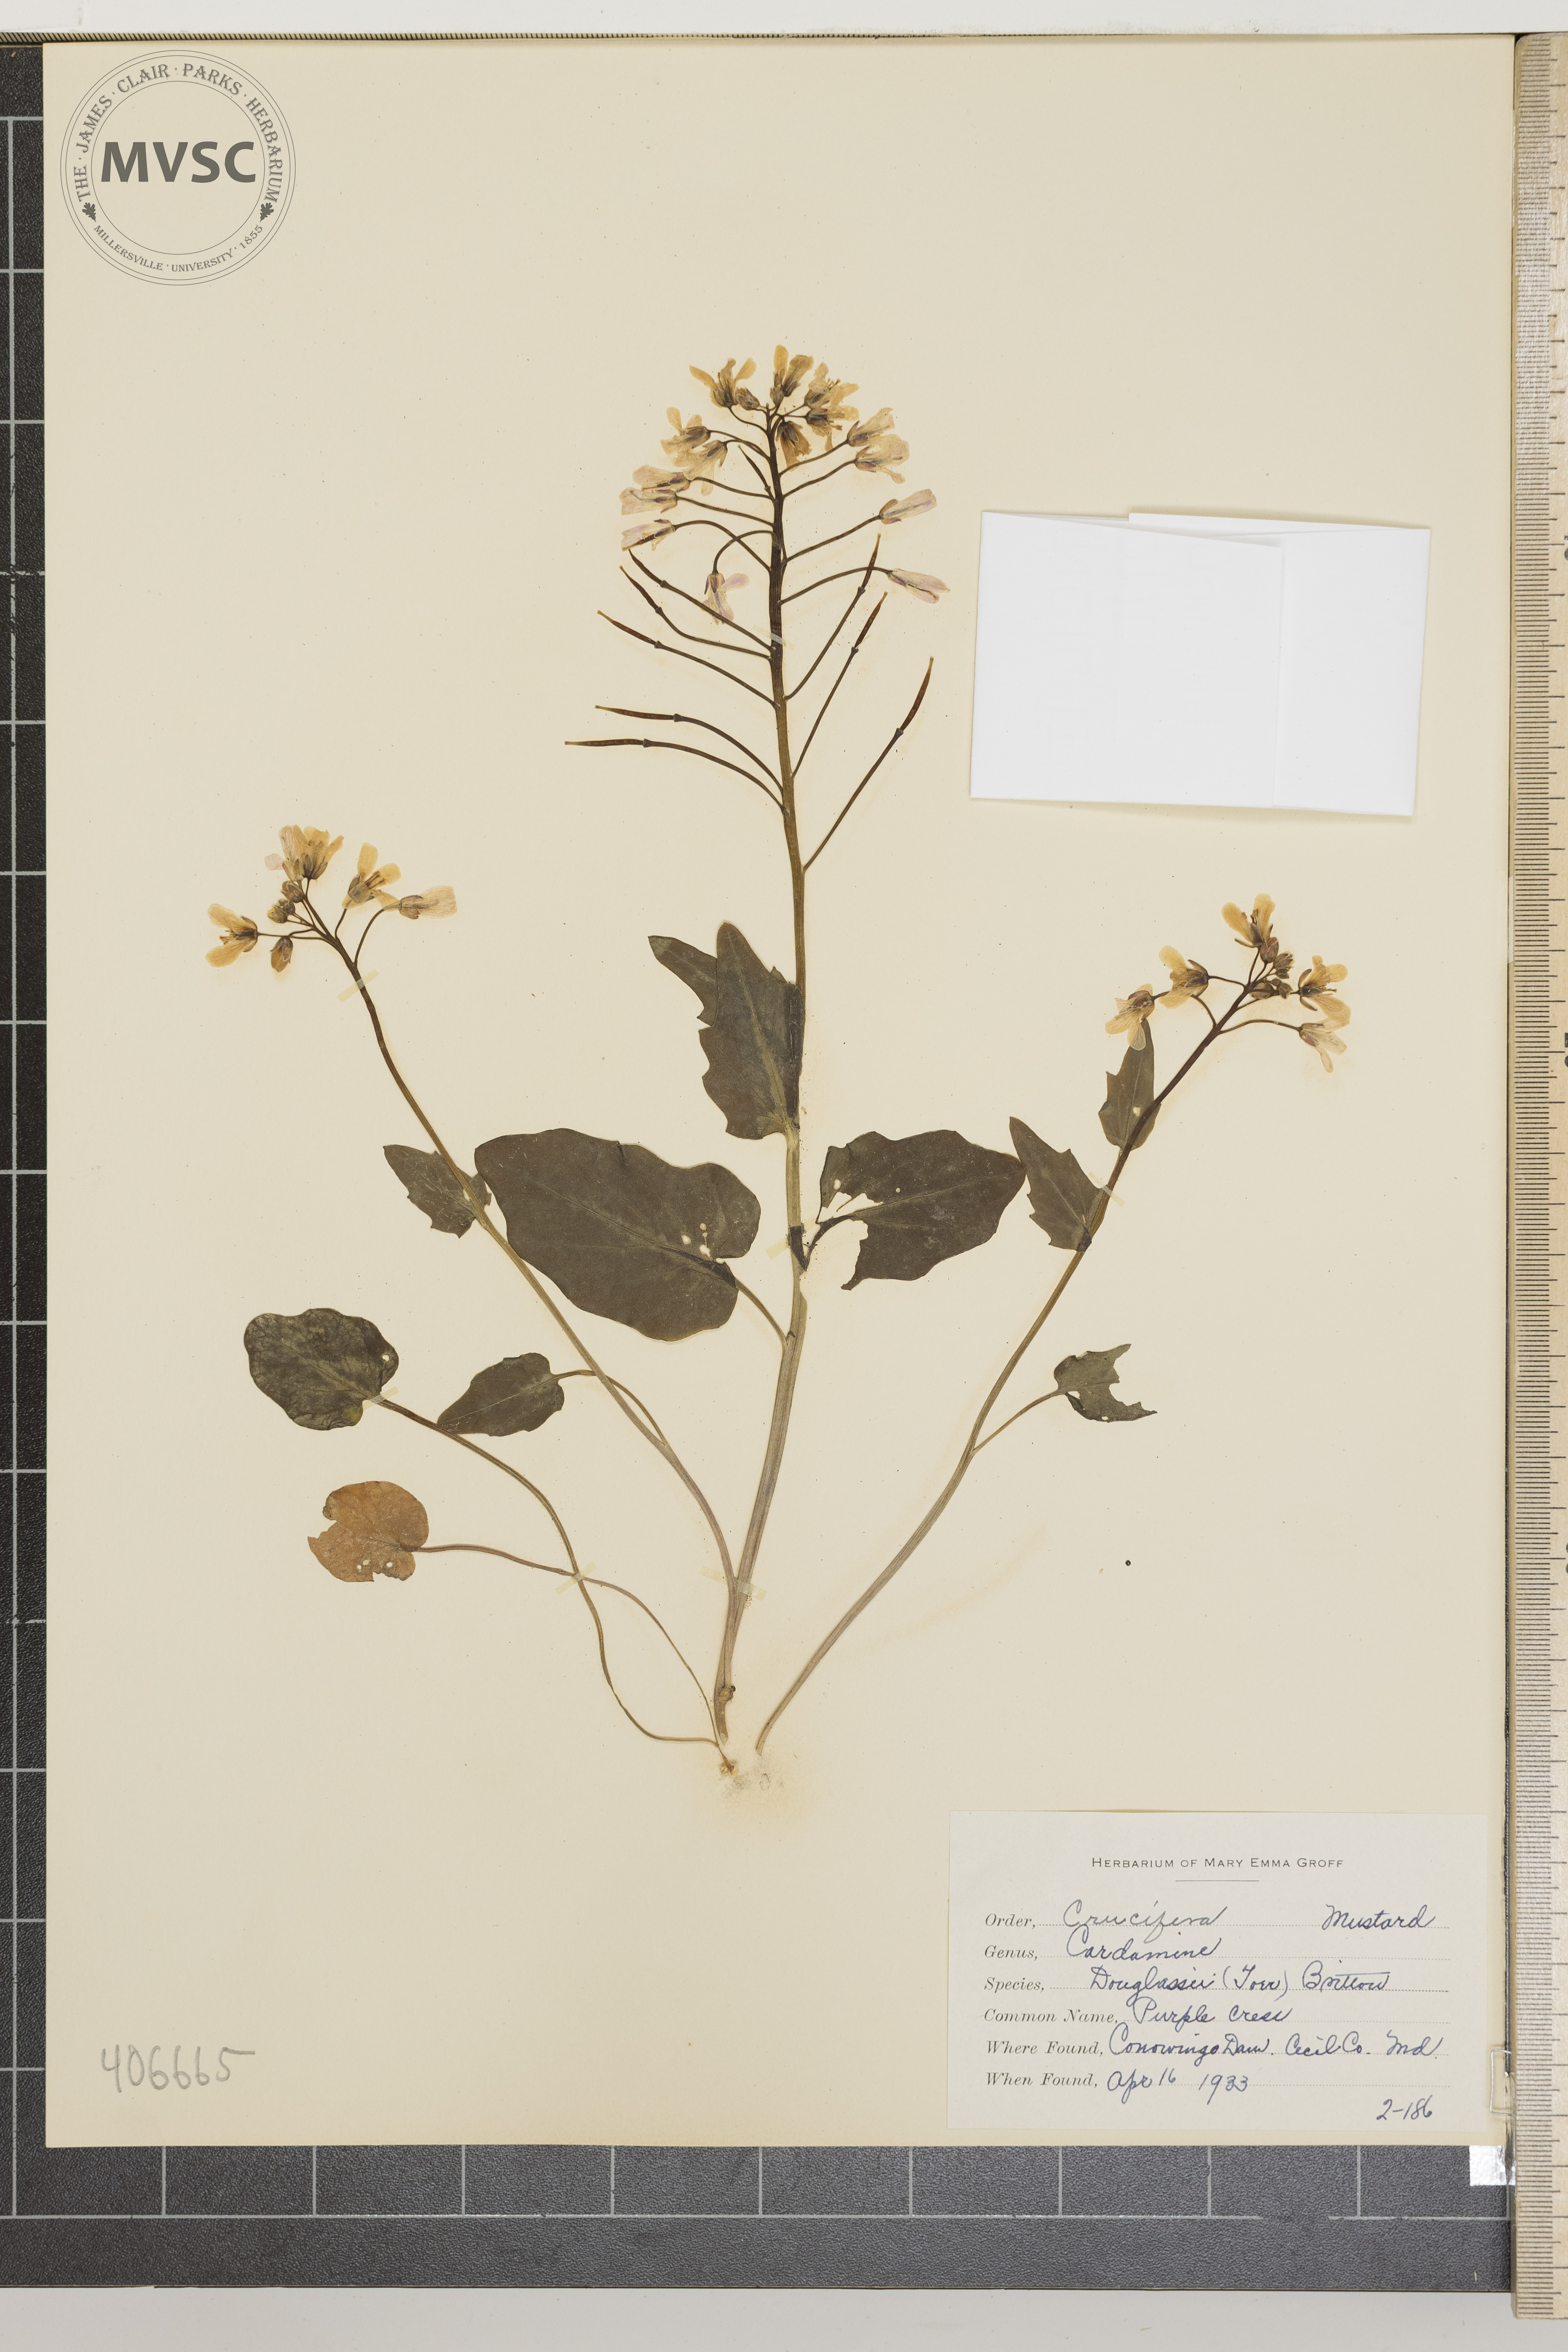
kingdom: Plantae
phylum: Tracheophyta
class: Magnoliopsida
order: Brassicales
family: Brassicaceae
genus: Cardamine
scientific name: Cardamine douglassii
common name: Purple Cress
